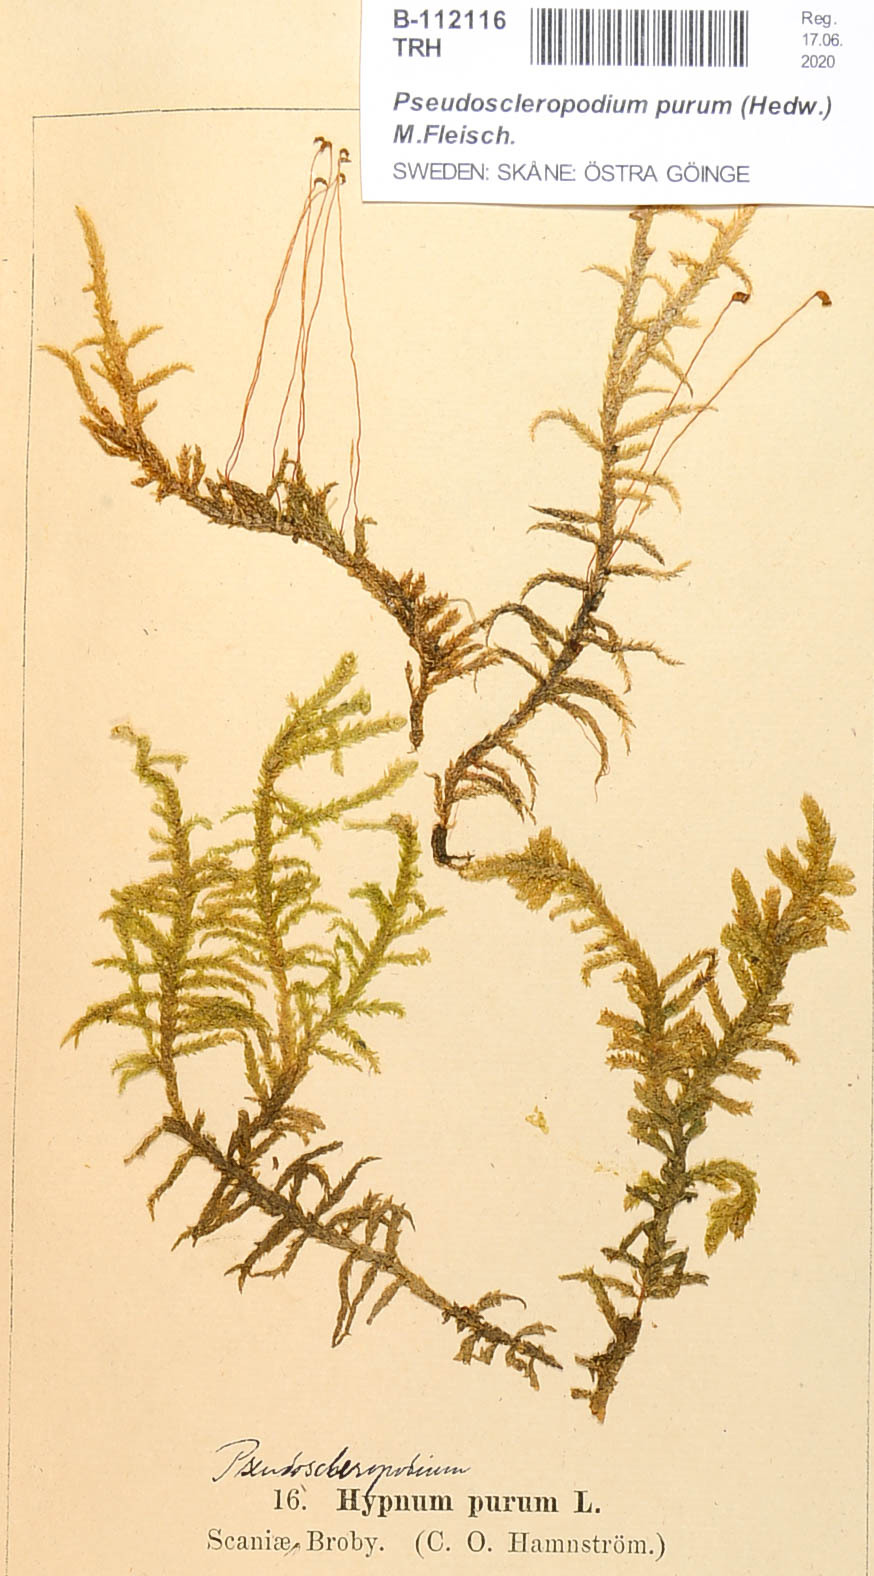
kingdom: Plantae
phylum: Bryophyta
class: Bryopsida
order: Hypnales
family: Brachytheciaceae
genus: Pseudoscleropodium
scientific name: Pseudoscleropodium purum
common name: Neat feather-moss
